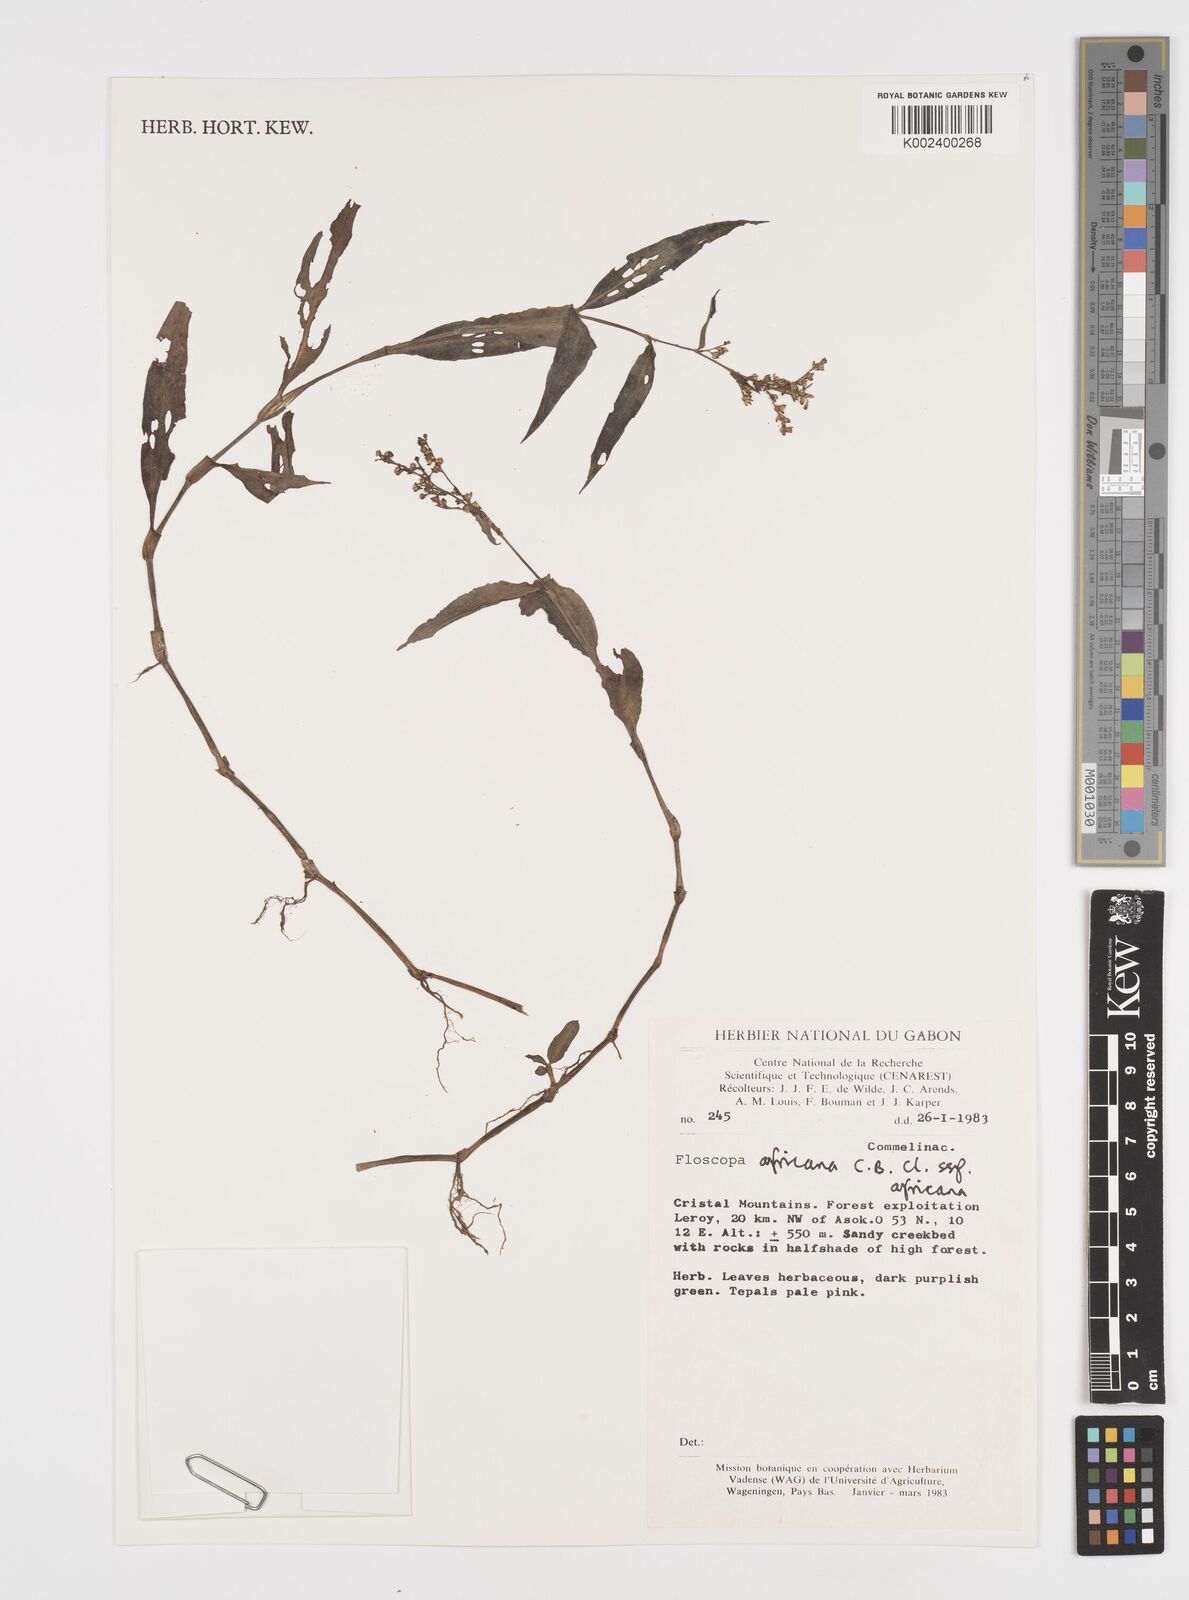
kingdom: Plantae
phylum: Tracheophyta
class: Liliopsida
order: Commelinales
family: Commelinaceae
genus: Floscopa
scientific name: Floscopa africana
